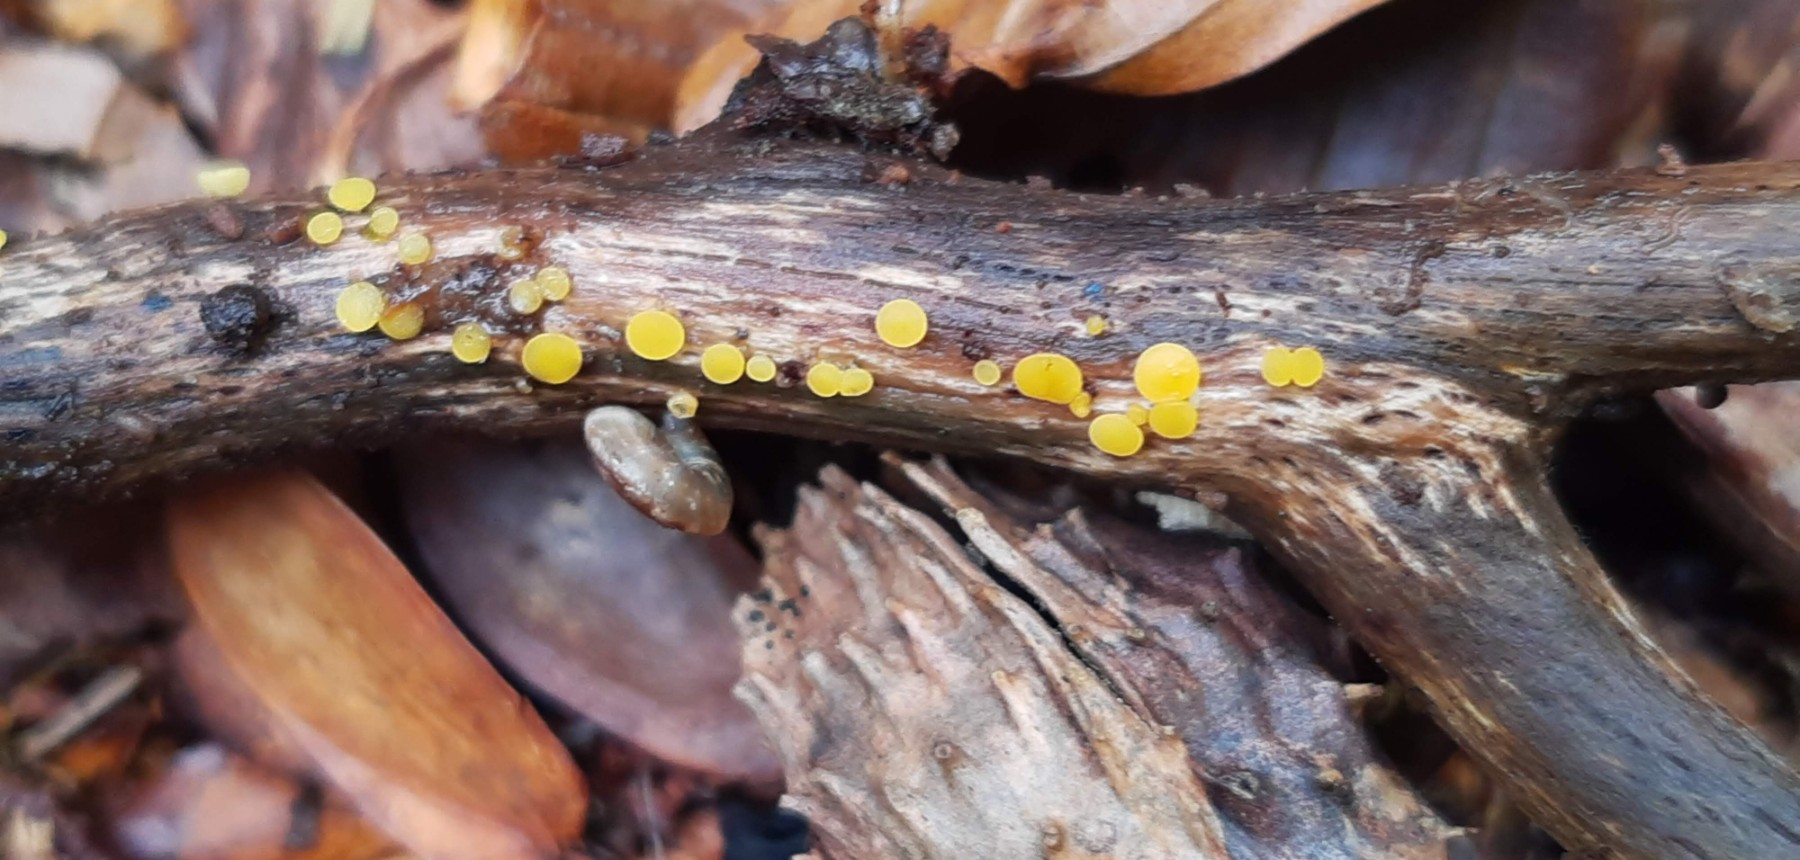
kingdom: Fungi
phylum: Ascomycota
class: Leotiomycetes
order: Helotiales
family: Pezizellaceae
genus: Calycina
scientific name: Calycina citrina
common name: almindelig gulskive
